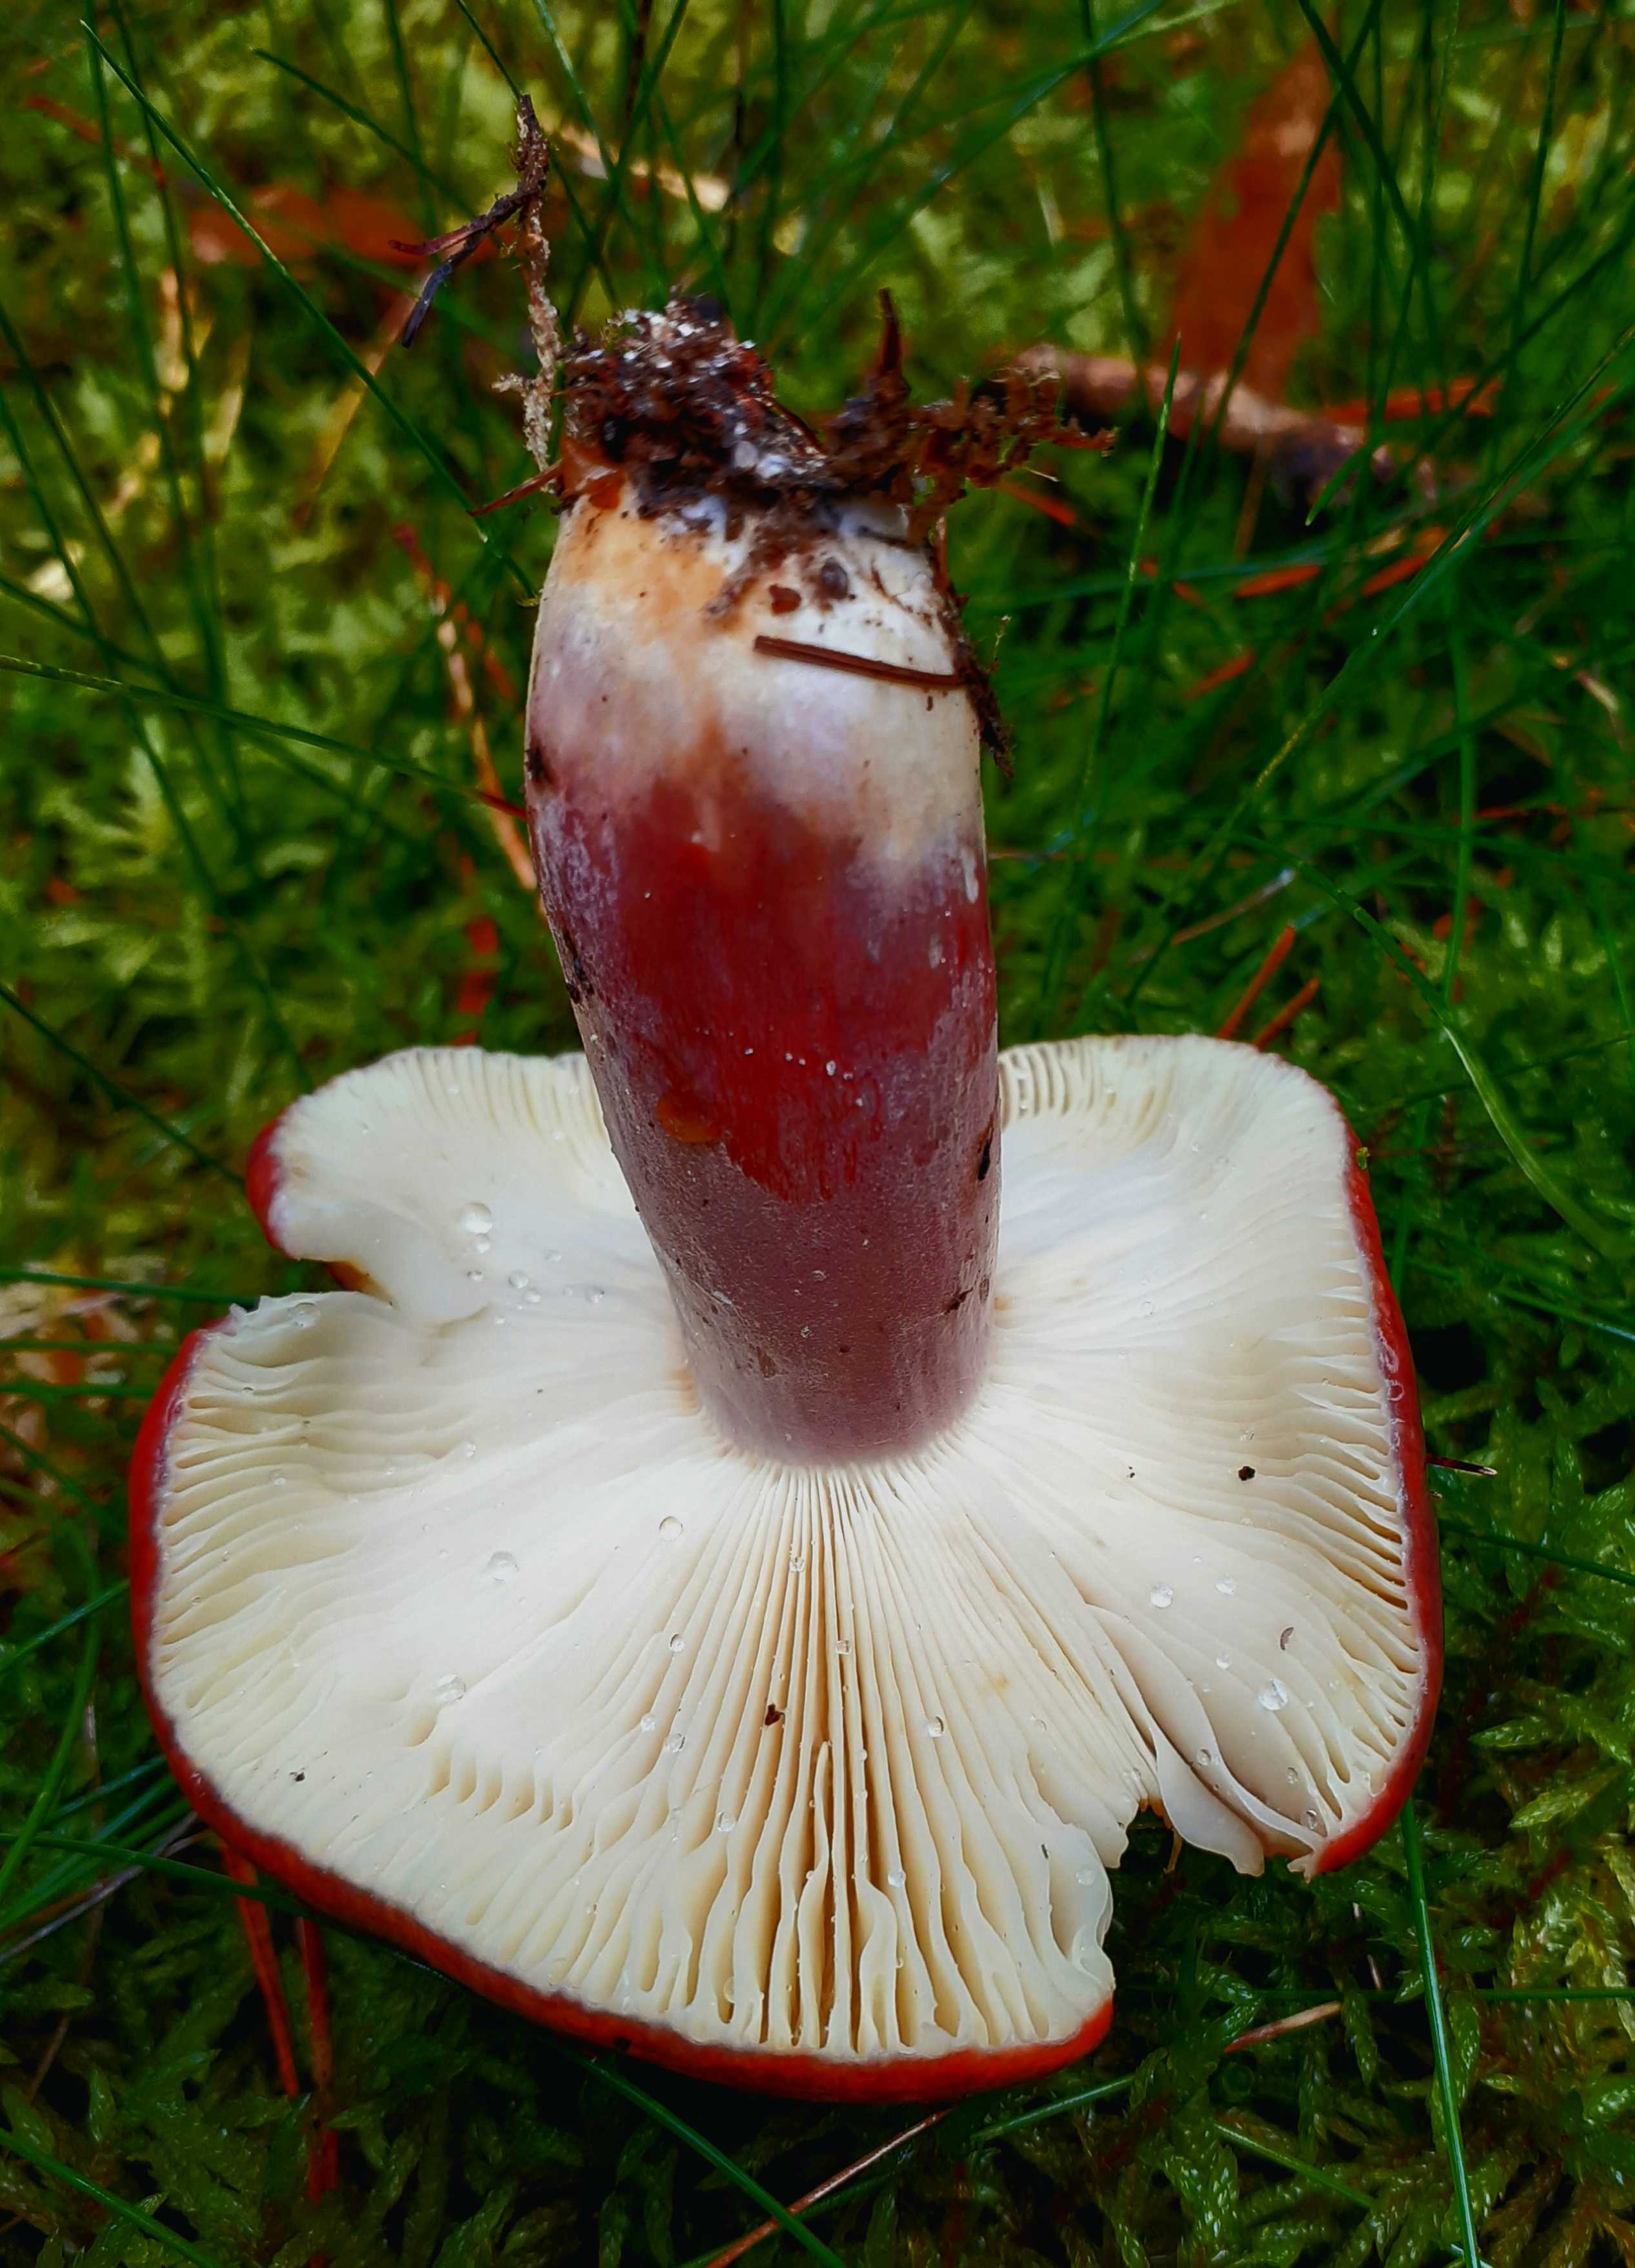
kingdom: Fungi
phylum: Basidiomycota
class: Agaricomycetes
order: Russulales
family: Russulaceae
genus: Russula
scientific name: Russula sardonia
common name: citronbladet skørhat
